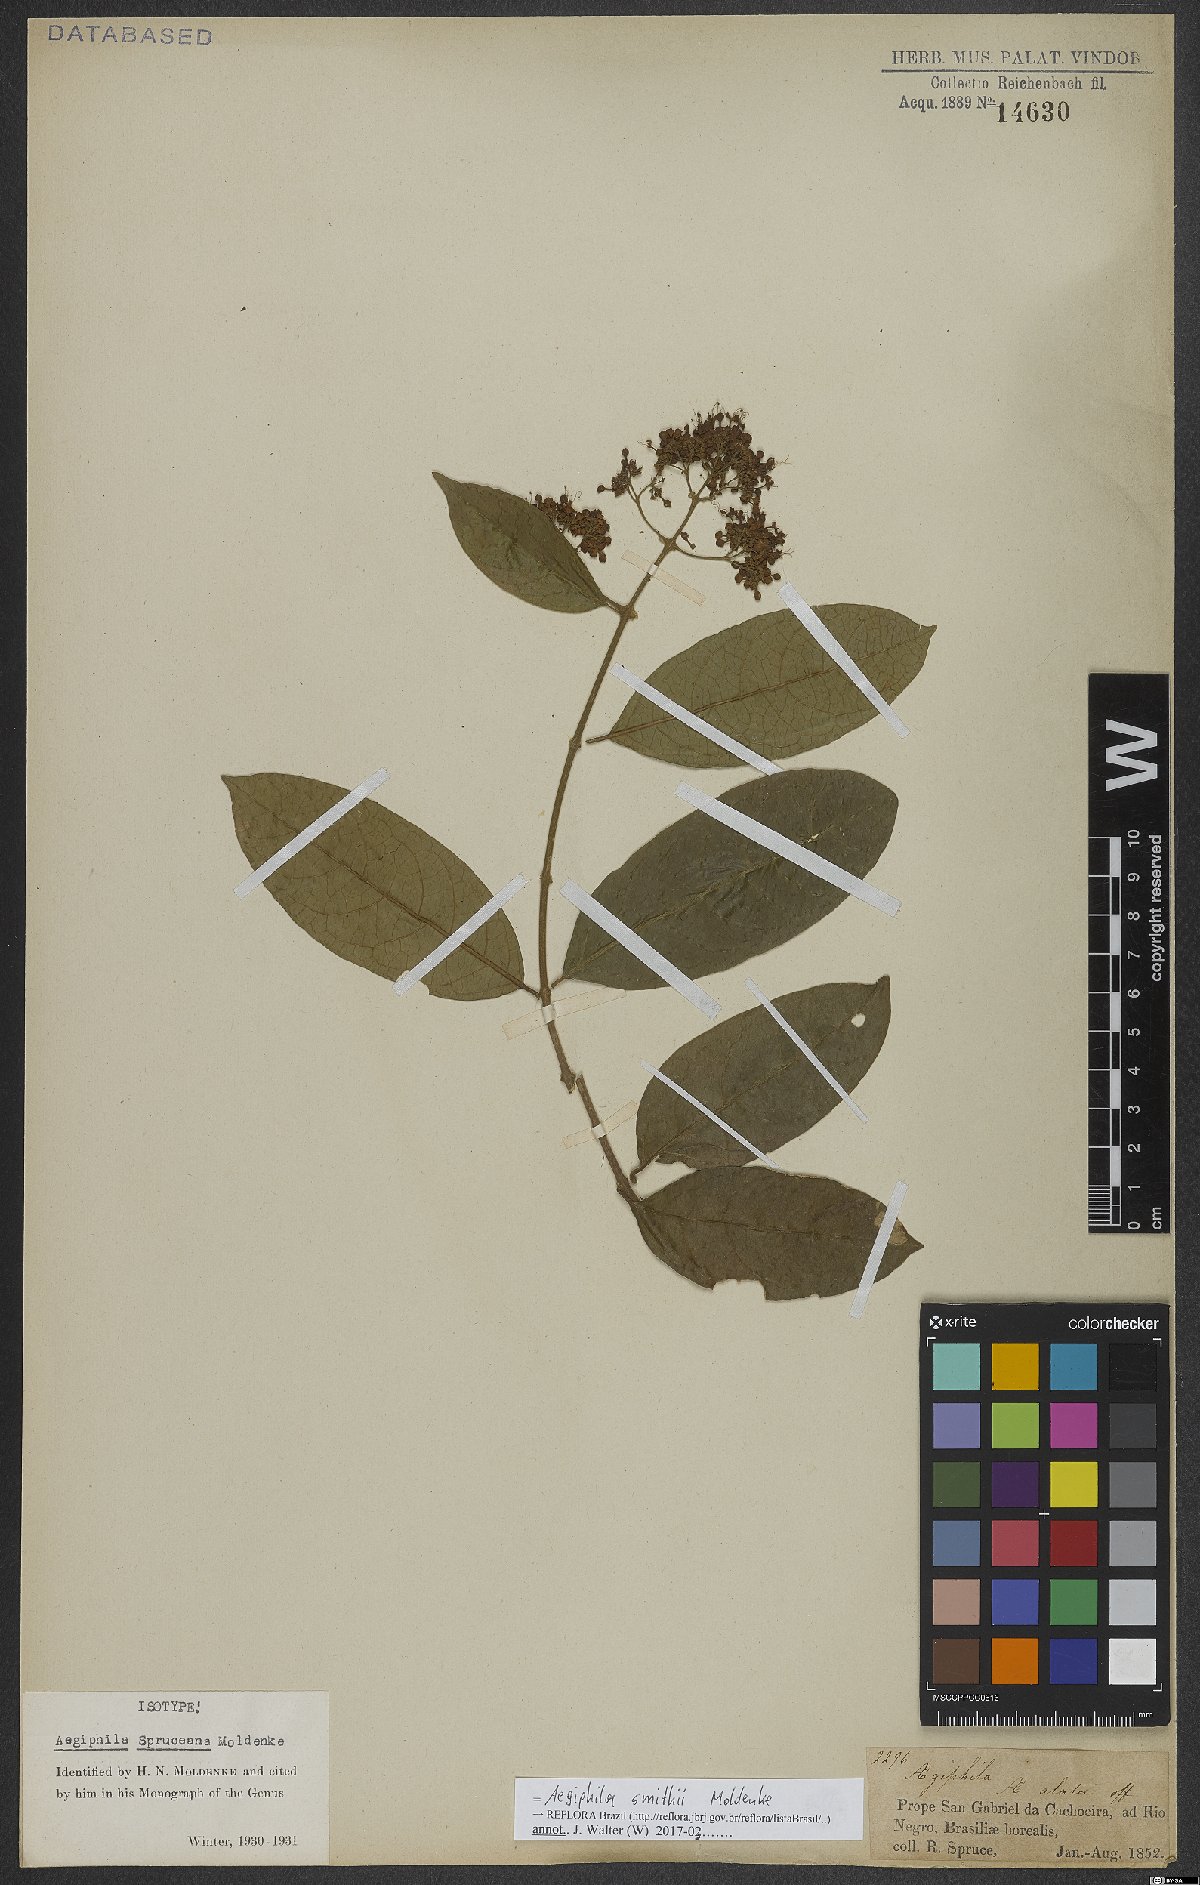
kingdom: Plantae
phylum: Tracheophyta
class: Magnoliopsida
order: Lamiales
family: Lamiaceae
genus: Aegiphila
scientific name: Aegiphila smithii
